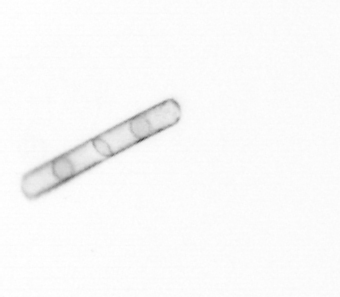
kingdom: Chromista
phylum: Ochrophyta
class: Bacillariophyceae
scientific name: Bacillariophyceae
